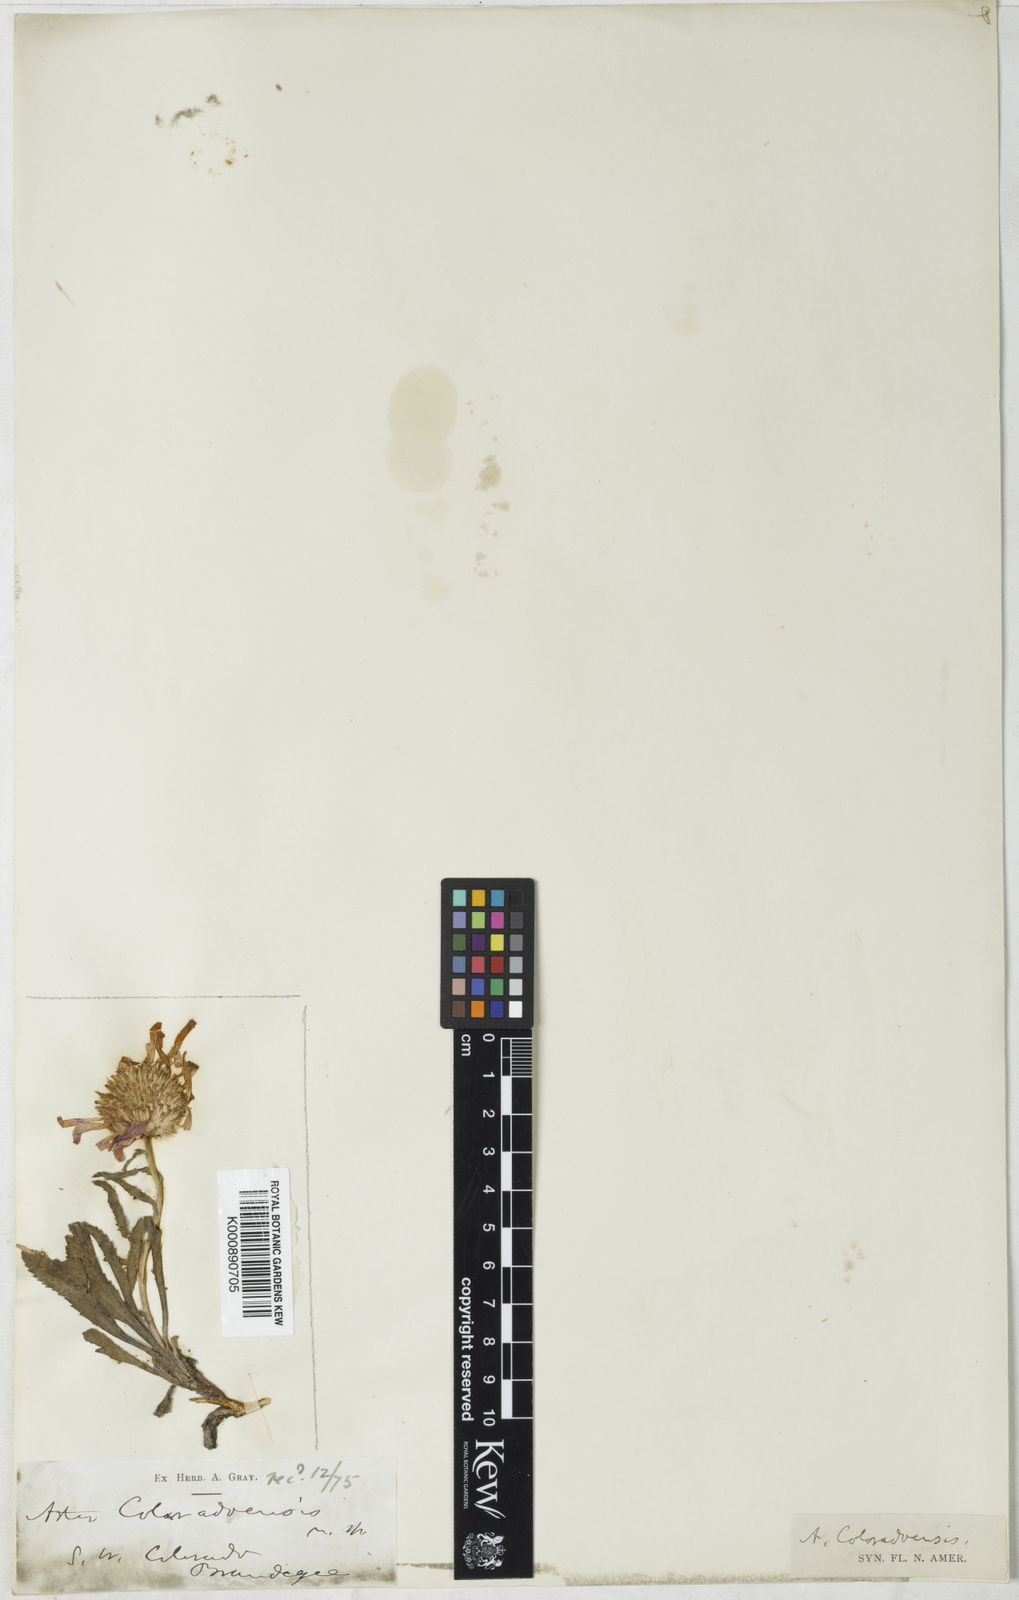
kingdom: Plantae
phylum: Tracheophyta
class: Magnoliopsida
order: Asterales
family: Asteraceae
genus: Xanthisma
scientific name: Xanthisma coloradoense
